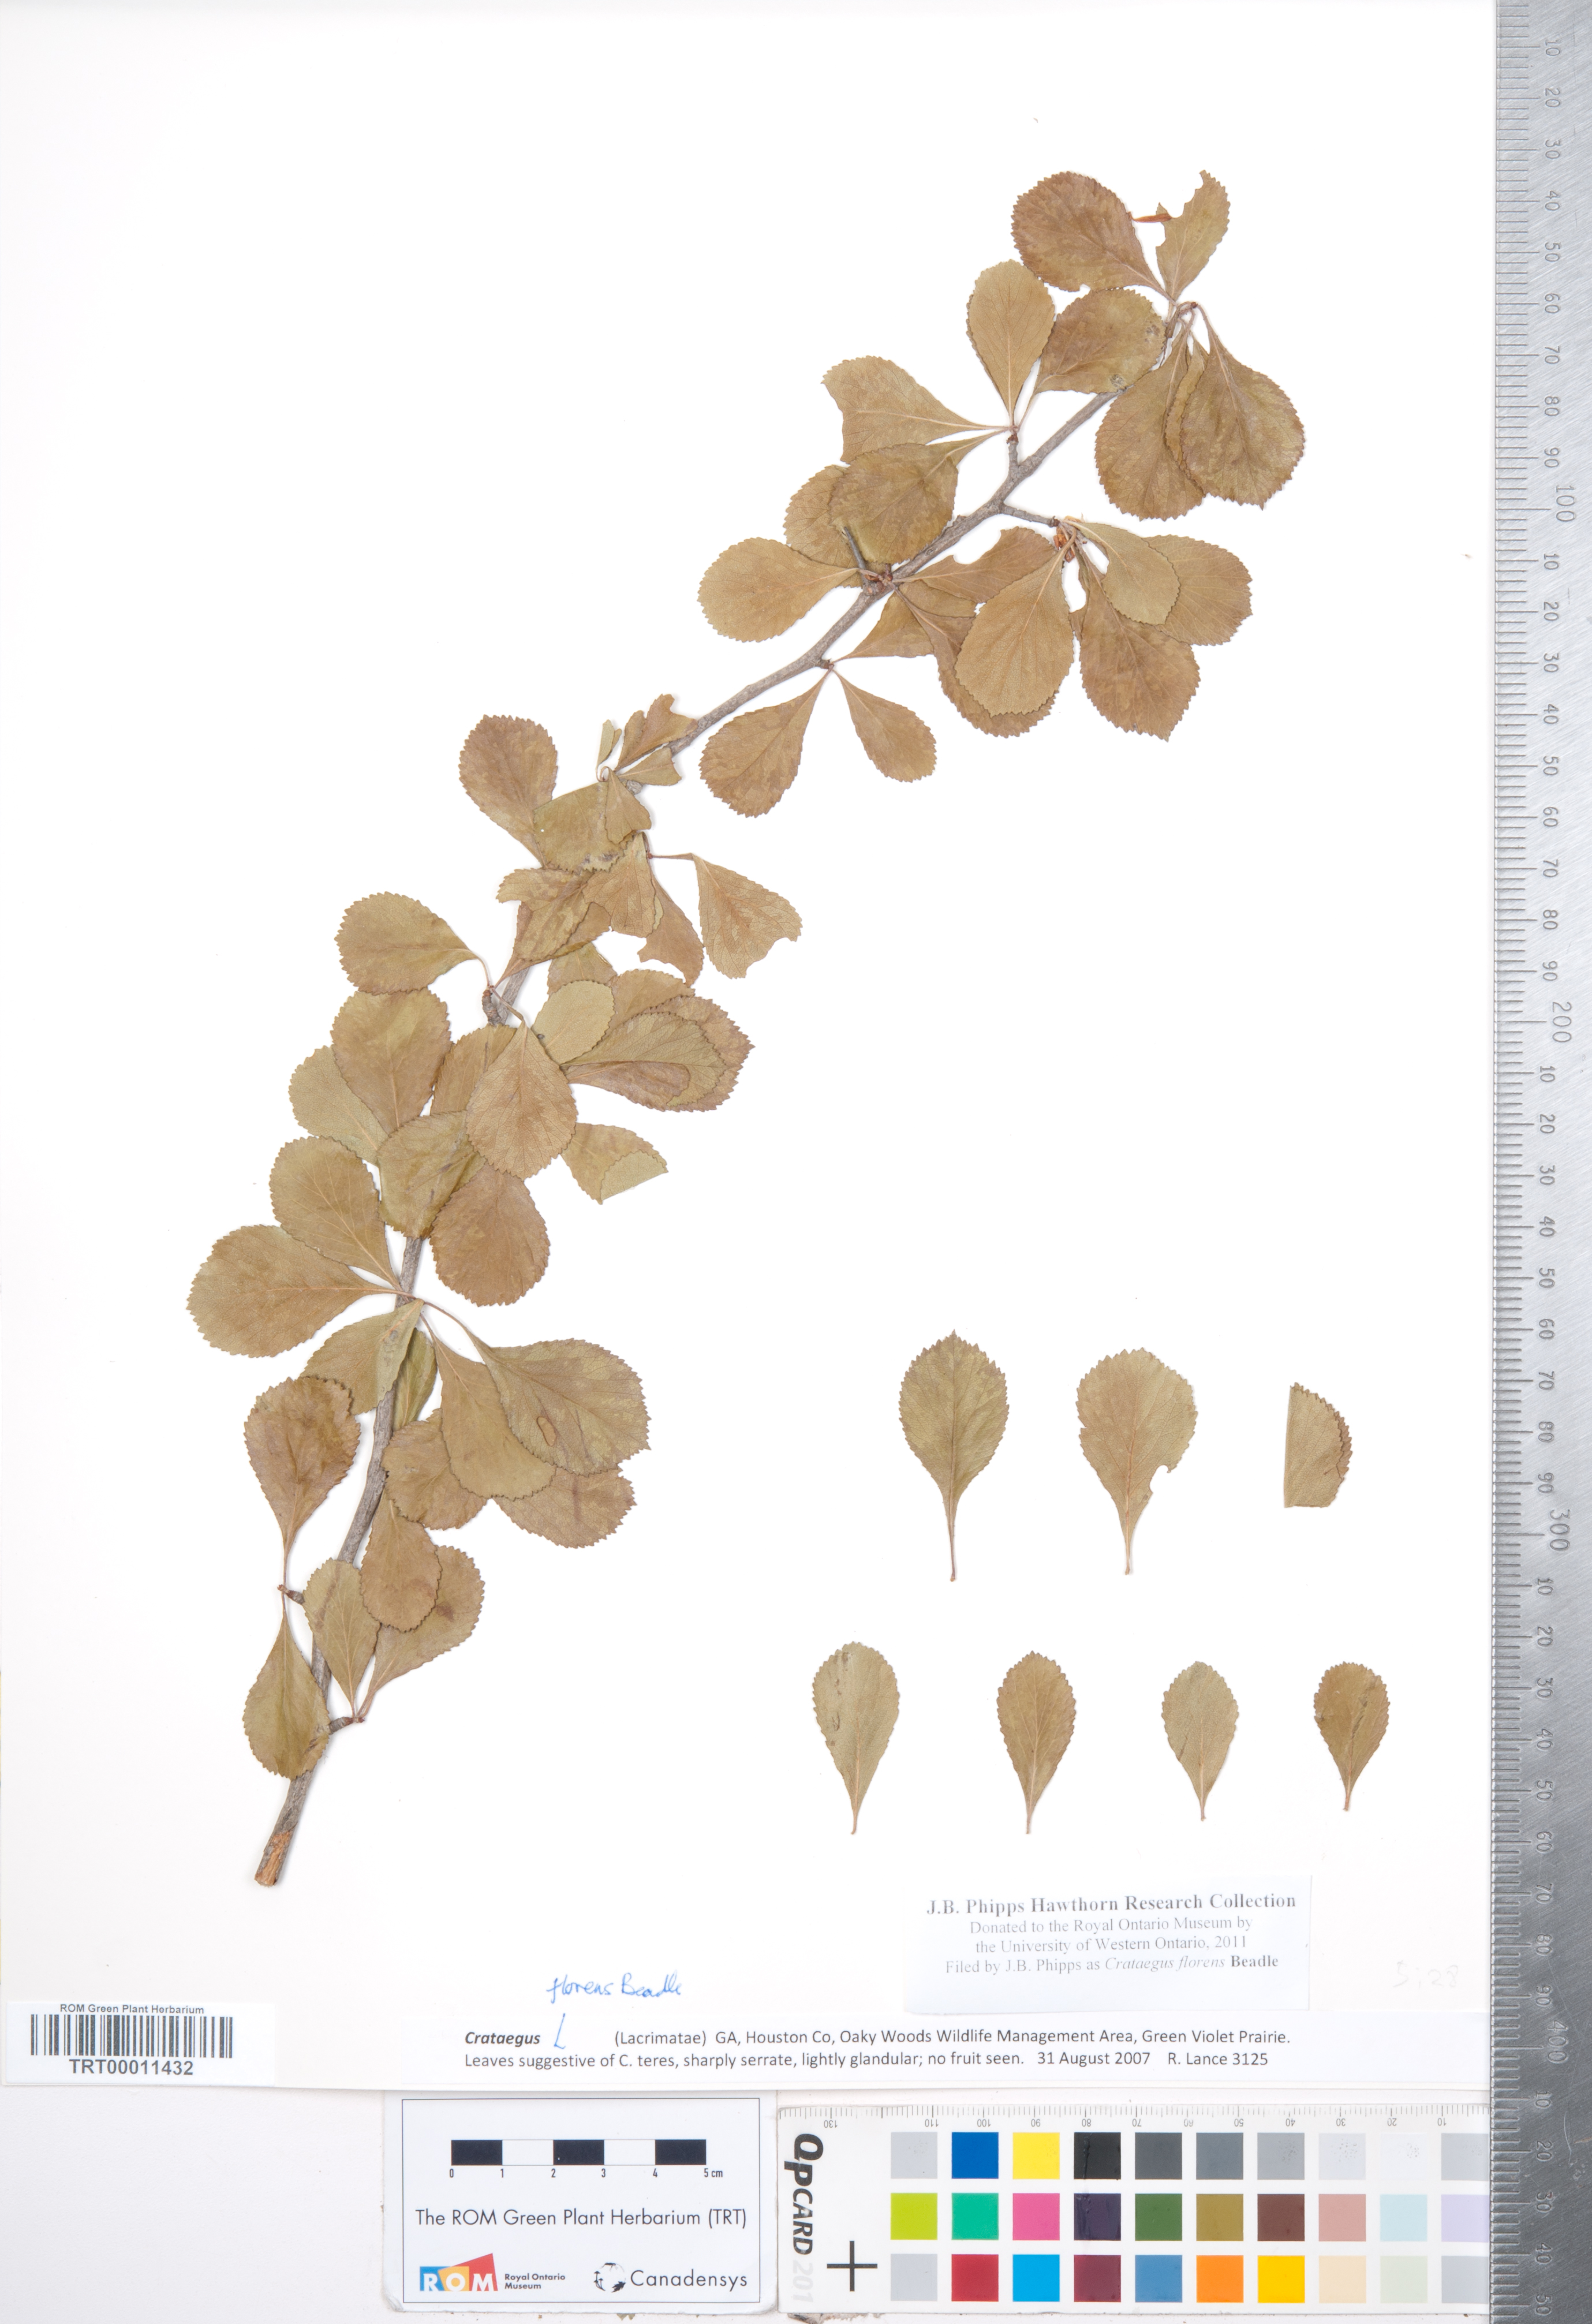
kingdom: Plantae
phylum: Tracheophyta
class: Magnoliopsida
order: Rosales
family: Rosaceae
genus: Crataegus
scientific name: Crataegus alabamensis
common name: Alabama hawthorn
